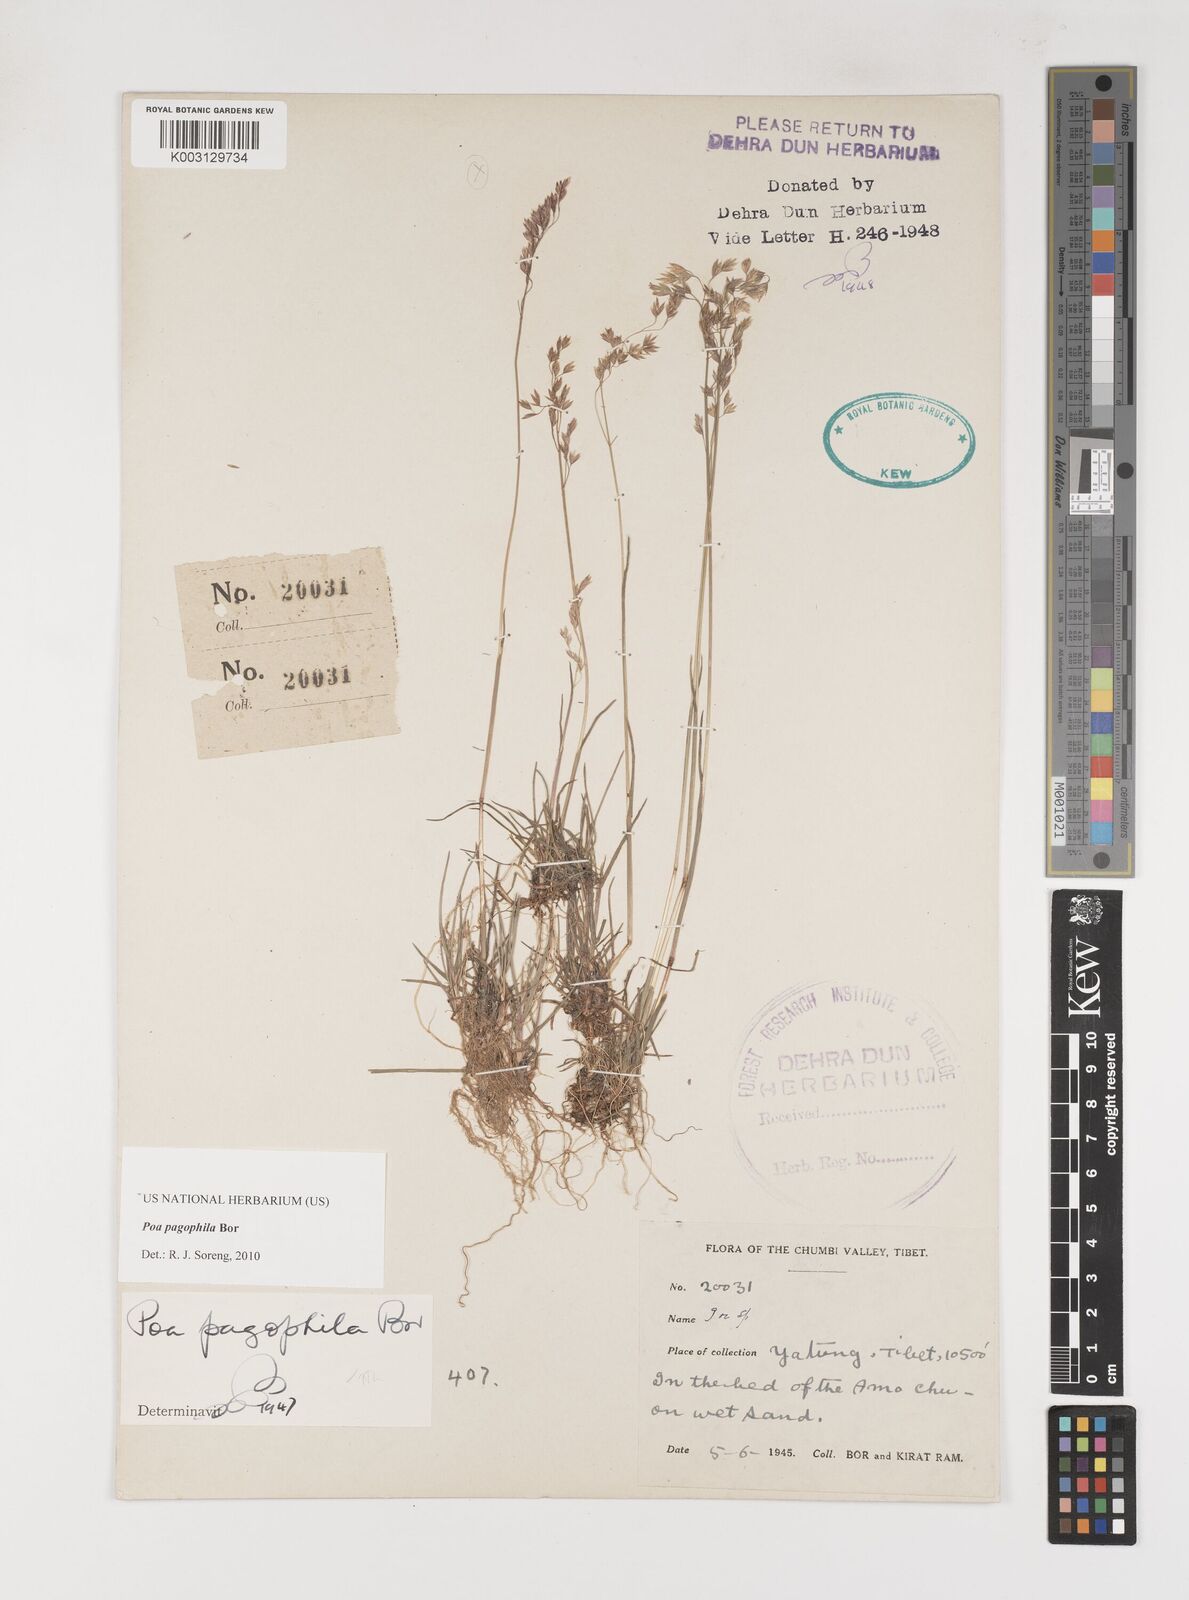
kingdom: Plantae
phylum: Tracheophyta
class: Liliopsida
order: Poales
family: Poaceae
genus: Poa
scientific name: Poa pagophila
